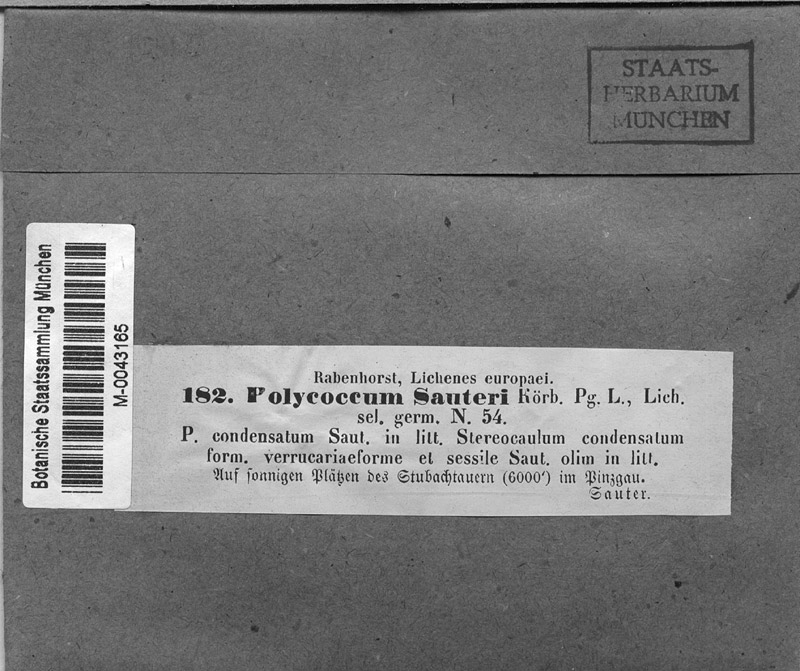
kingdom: Fungi
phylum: Ascomycota
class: Lecanoromycetes
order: Lecanorales
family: Stereocaulaceae
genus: Stereocaulon
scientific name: Stereocaulon condensatum
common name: Sandy soil foam
